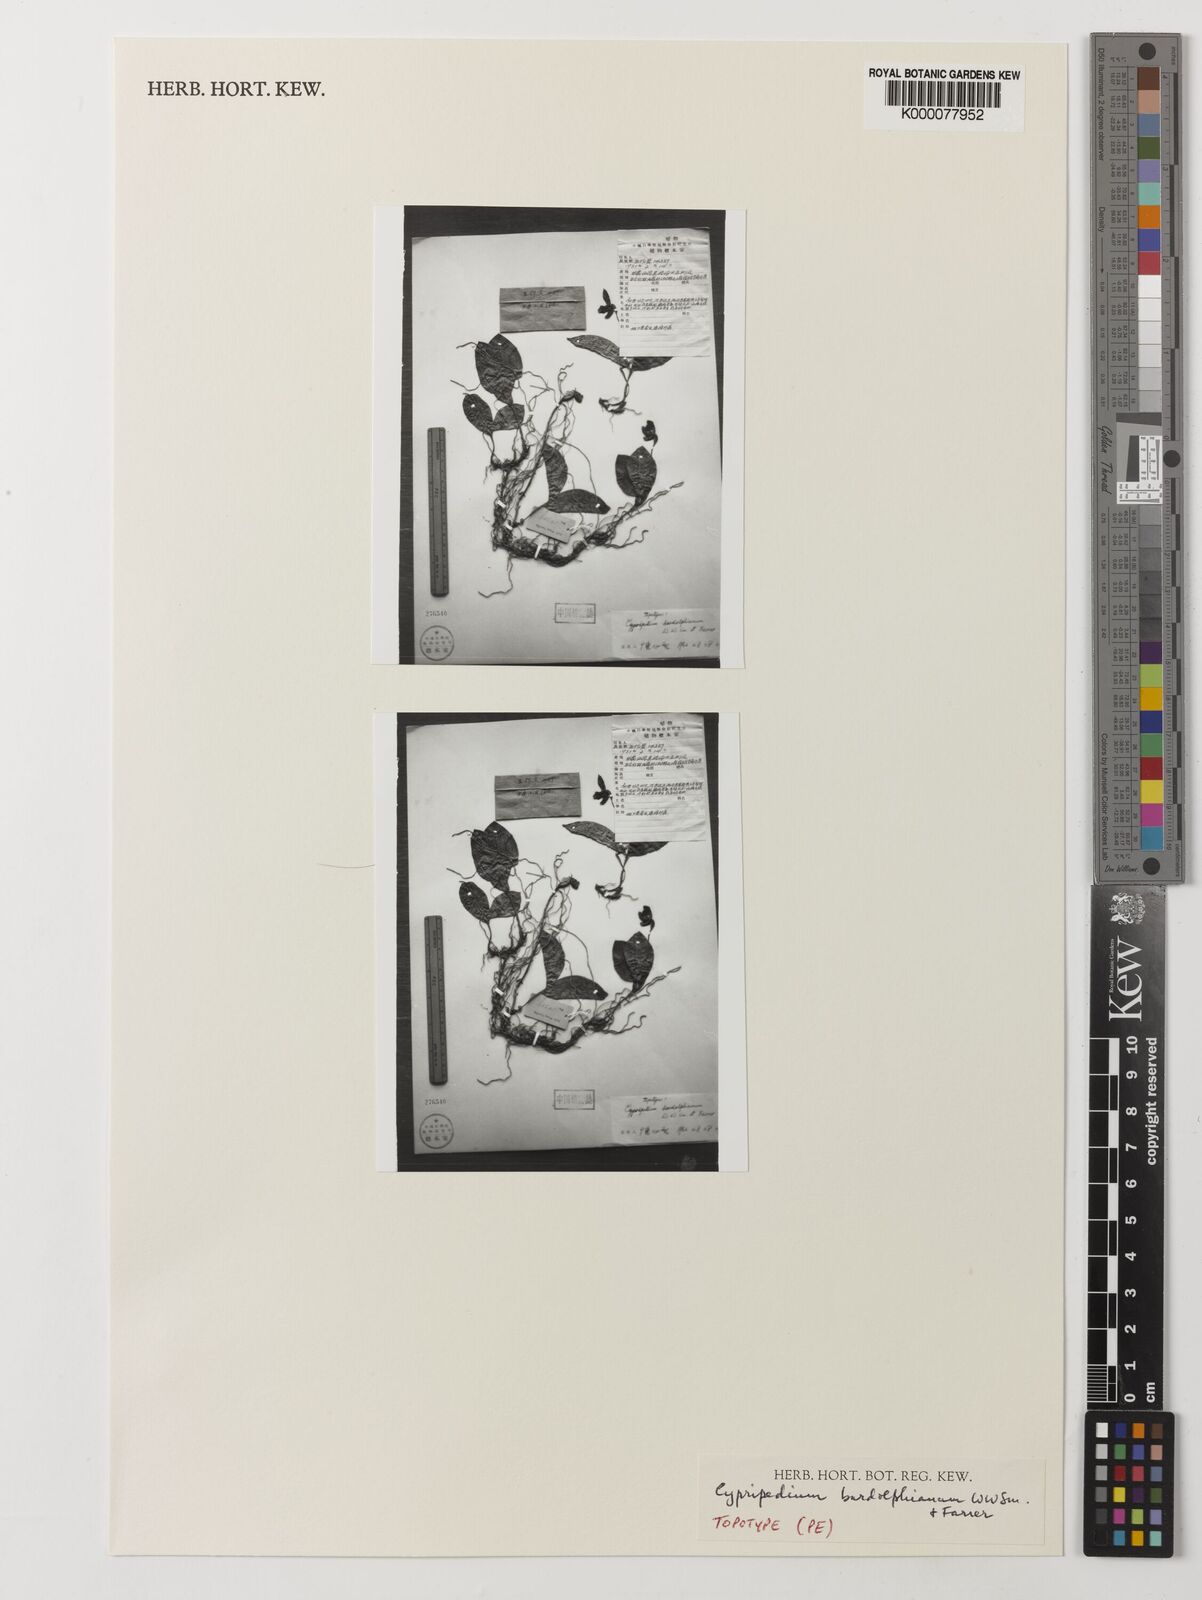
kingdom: Plantae
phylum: Tracheophyta
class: Liliopsida
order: Asparagales
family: Orchidaceae
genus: Cypripedium
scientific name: Cypripedium bardolphianum
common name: Bardolph's cypripedium
